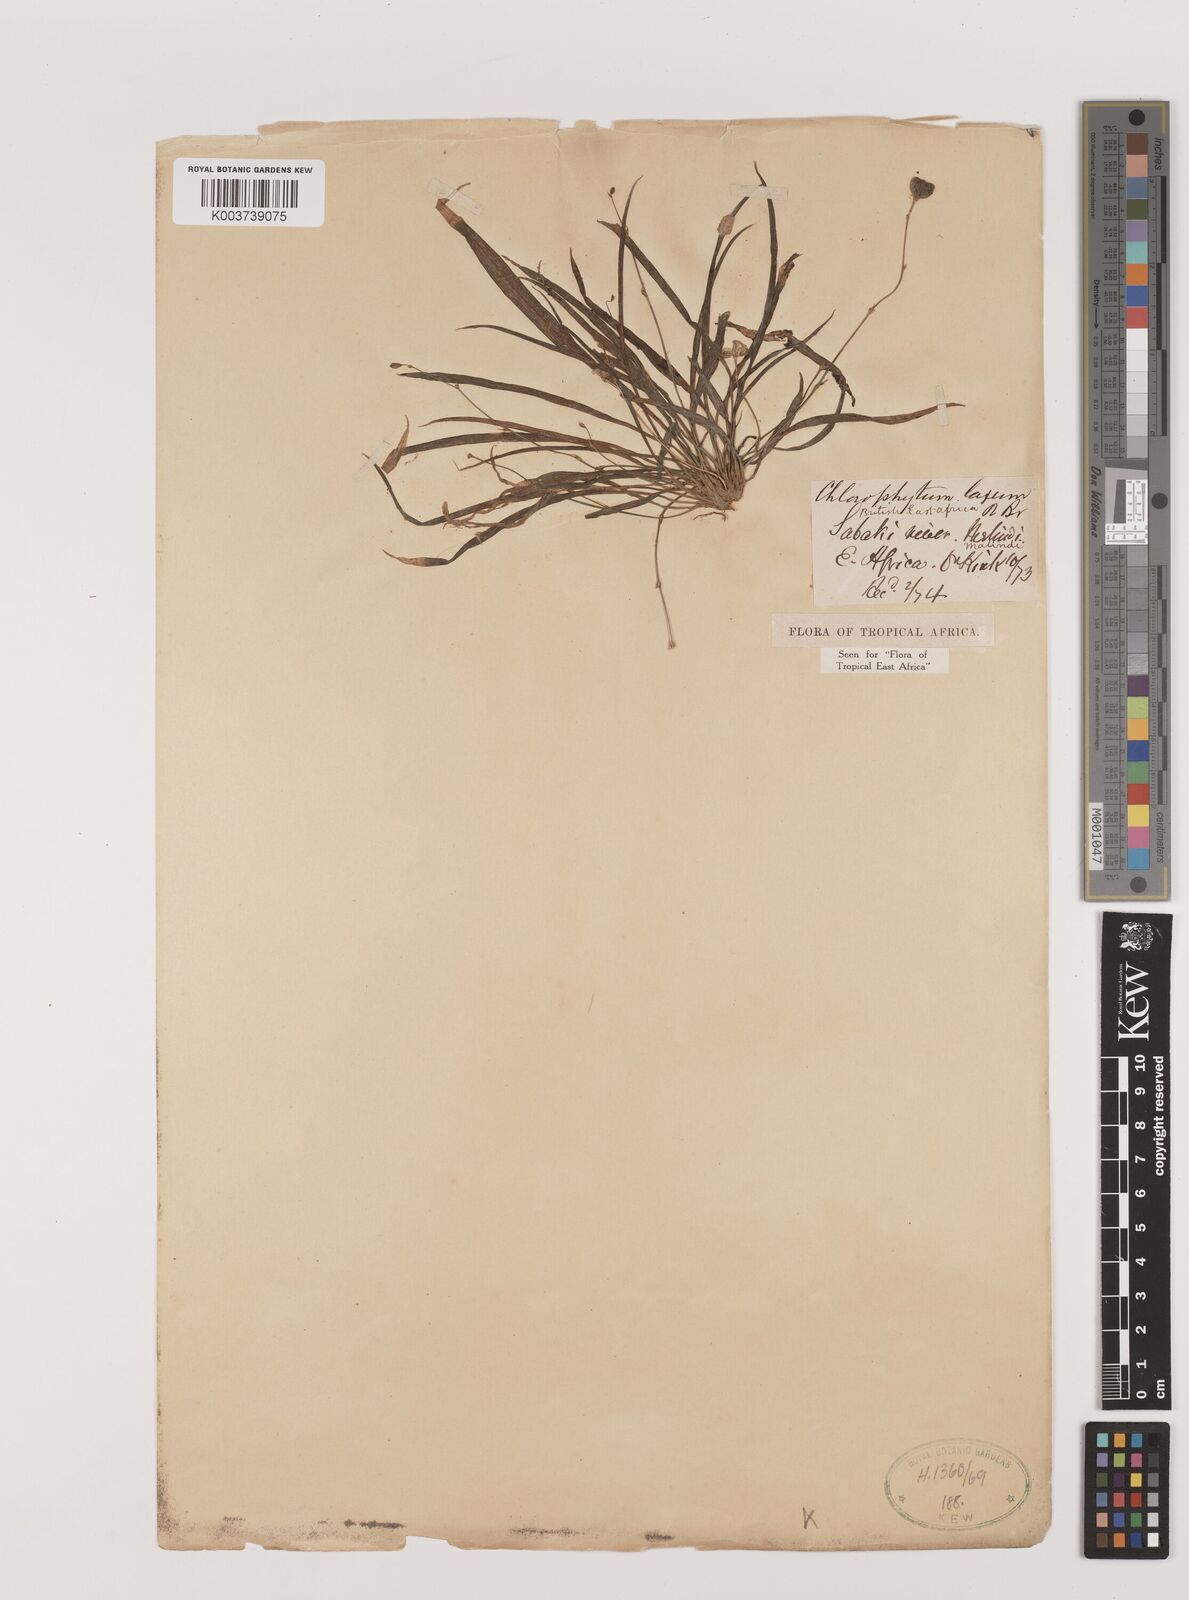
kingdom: Plantae
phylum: Tracheophyta
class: Liliopsida
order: Asparagales
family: Asparagaceae
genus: Chlorophytum
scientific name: Chlorophytum tenerrimum
